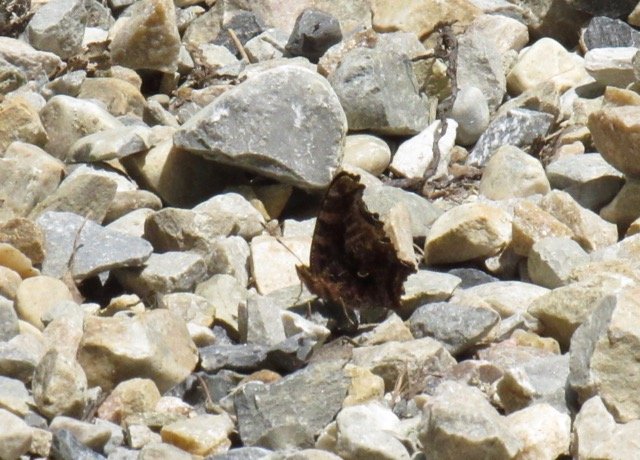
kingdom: Animalia
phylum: Arthropoda
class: Insecta
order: Lepidoptera
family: Nymphalidae
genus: Polygonia
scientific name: Polygonia comma
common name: Eastern Comma
